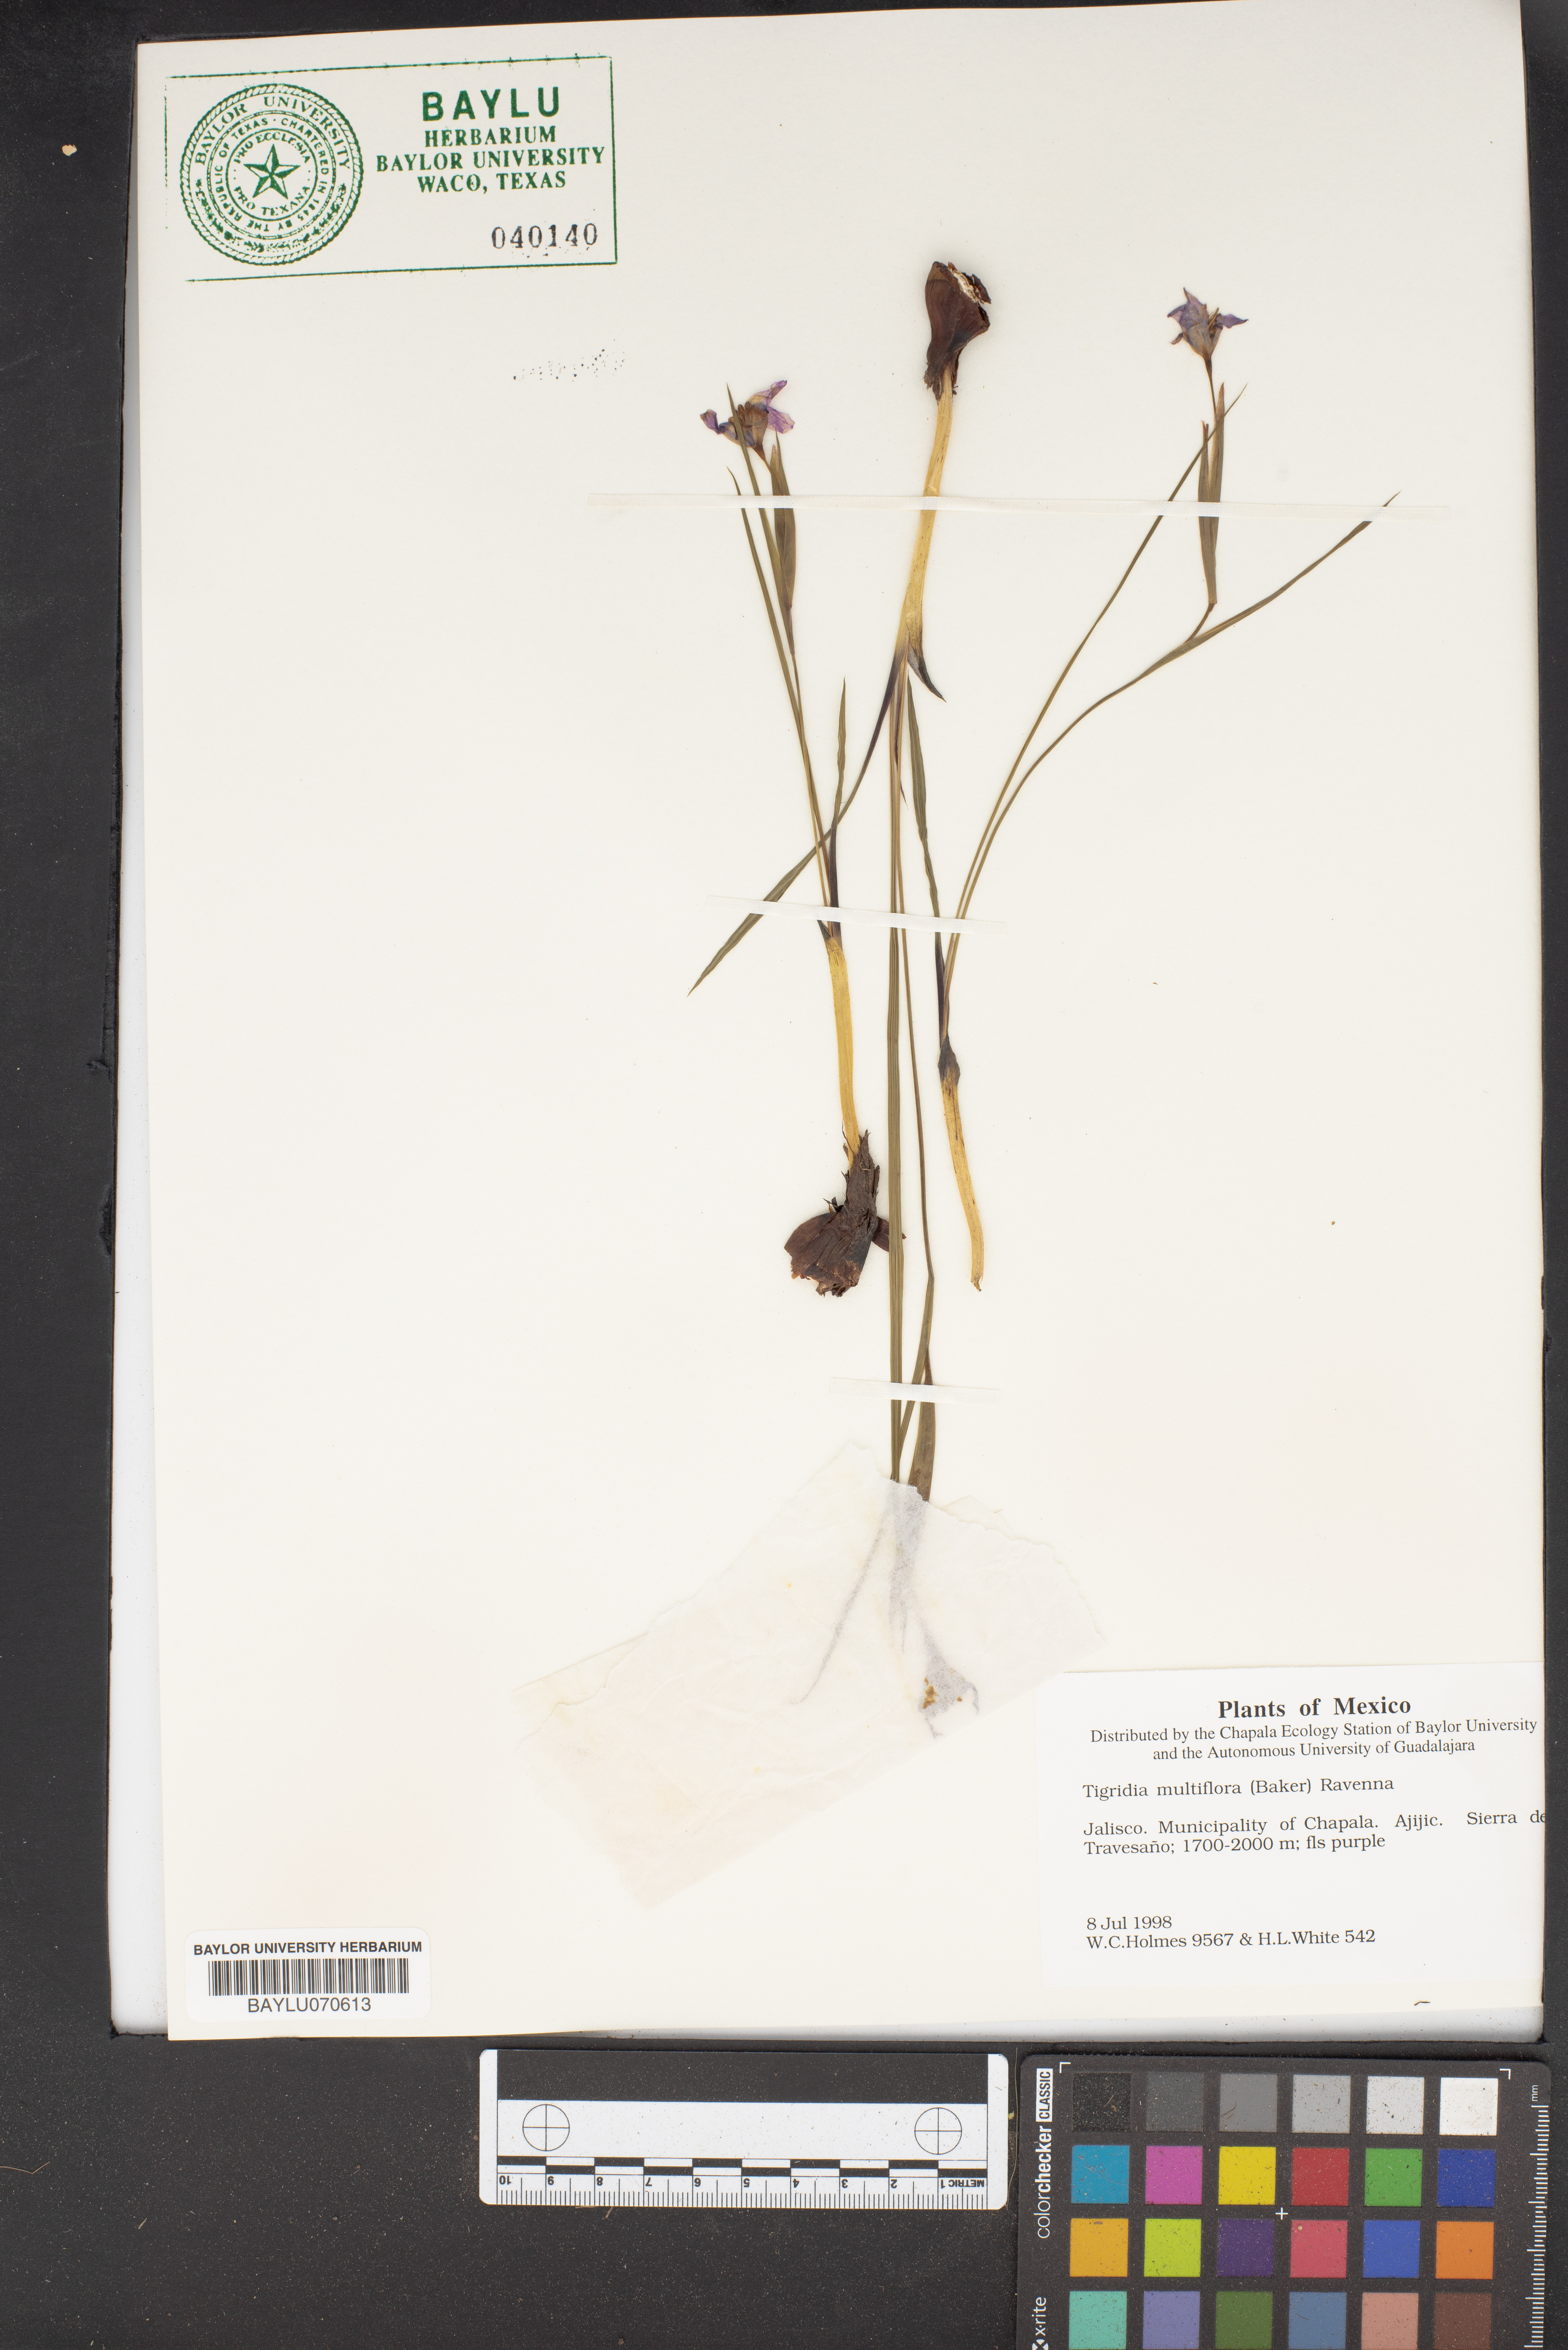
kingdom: Plantae
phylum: Tracheophyta
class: Liliopsida
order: Asparagales
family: Iridaceae
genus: Tigridia
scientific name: Tigridia multiflora
